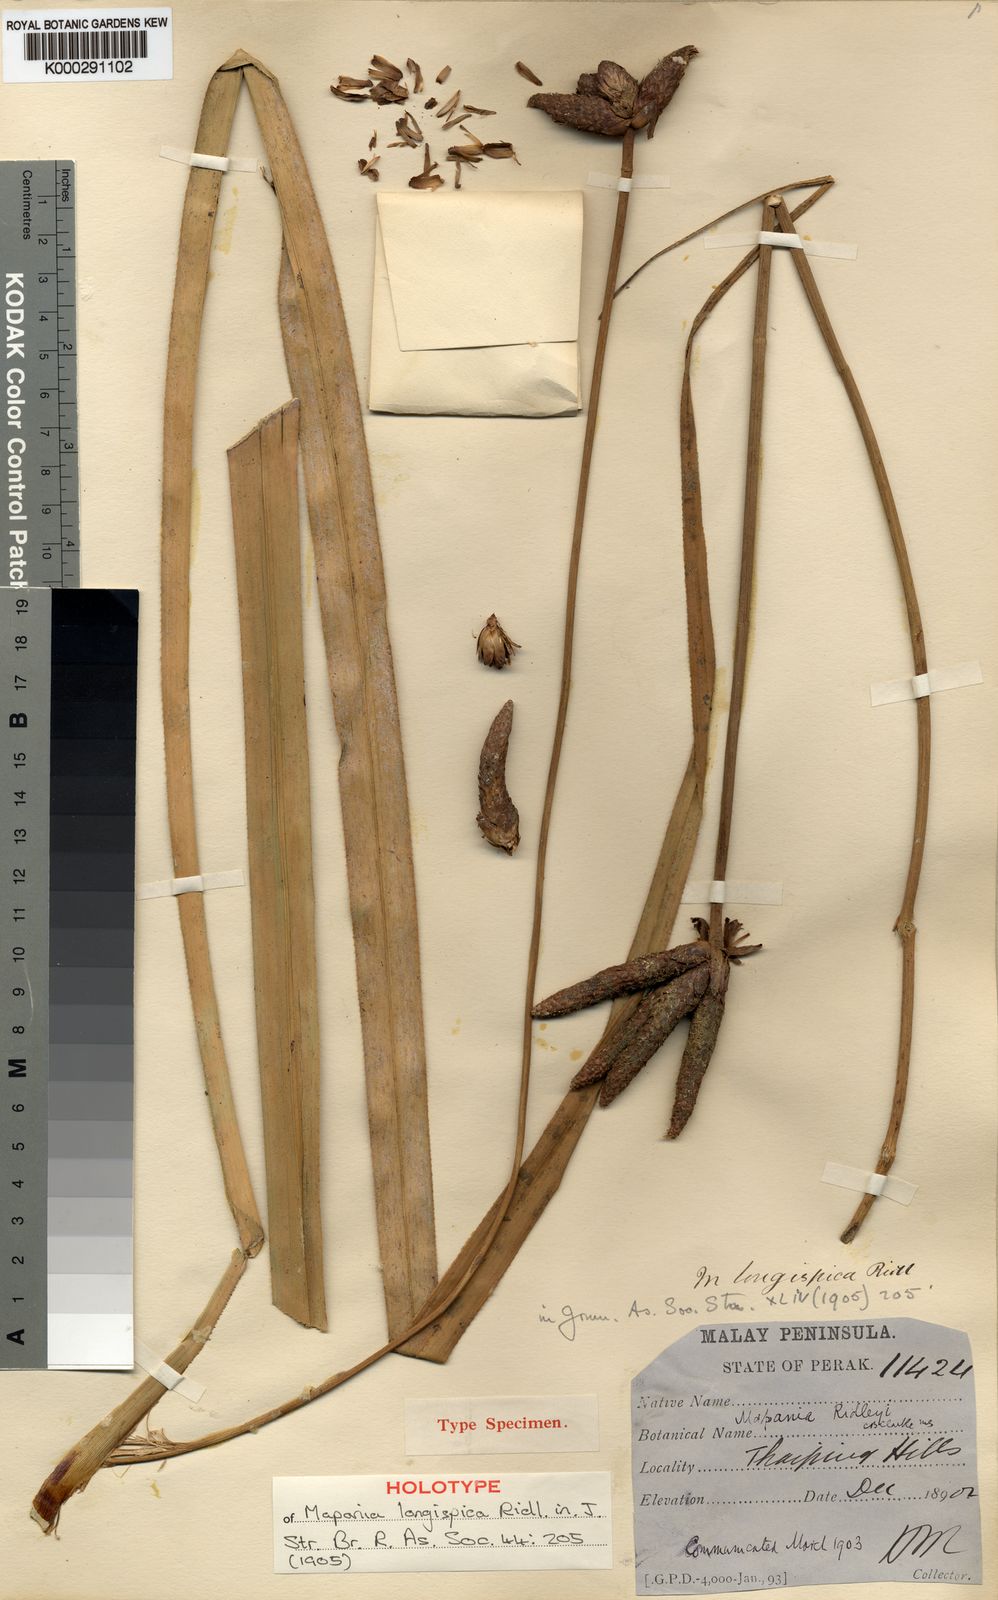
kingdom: Plantae
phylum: Tracheophyta
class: Liliopsida
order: Poales
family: Cyperaceae
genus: Mapania
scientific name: Mapania kurzii
